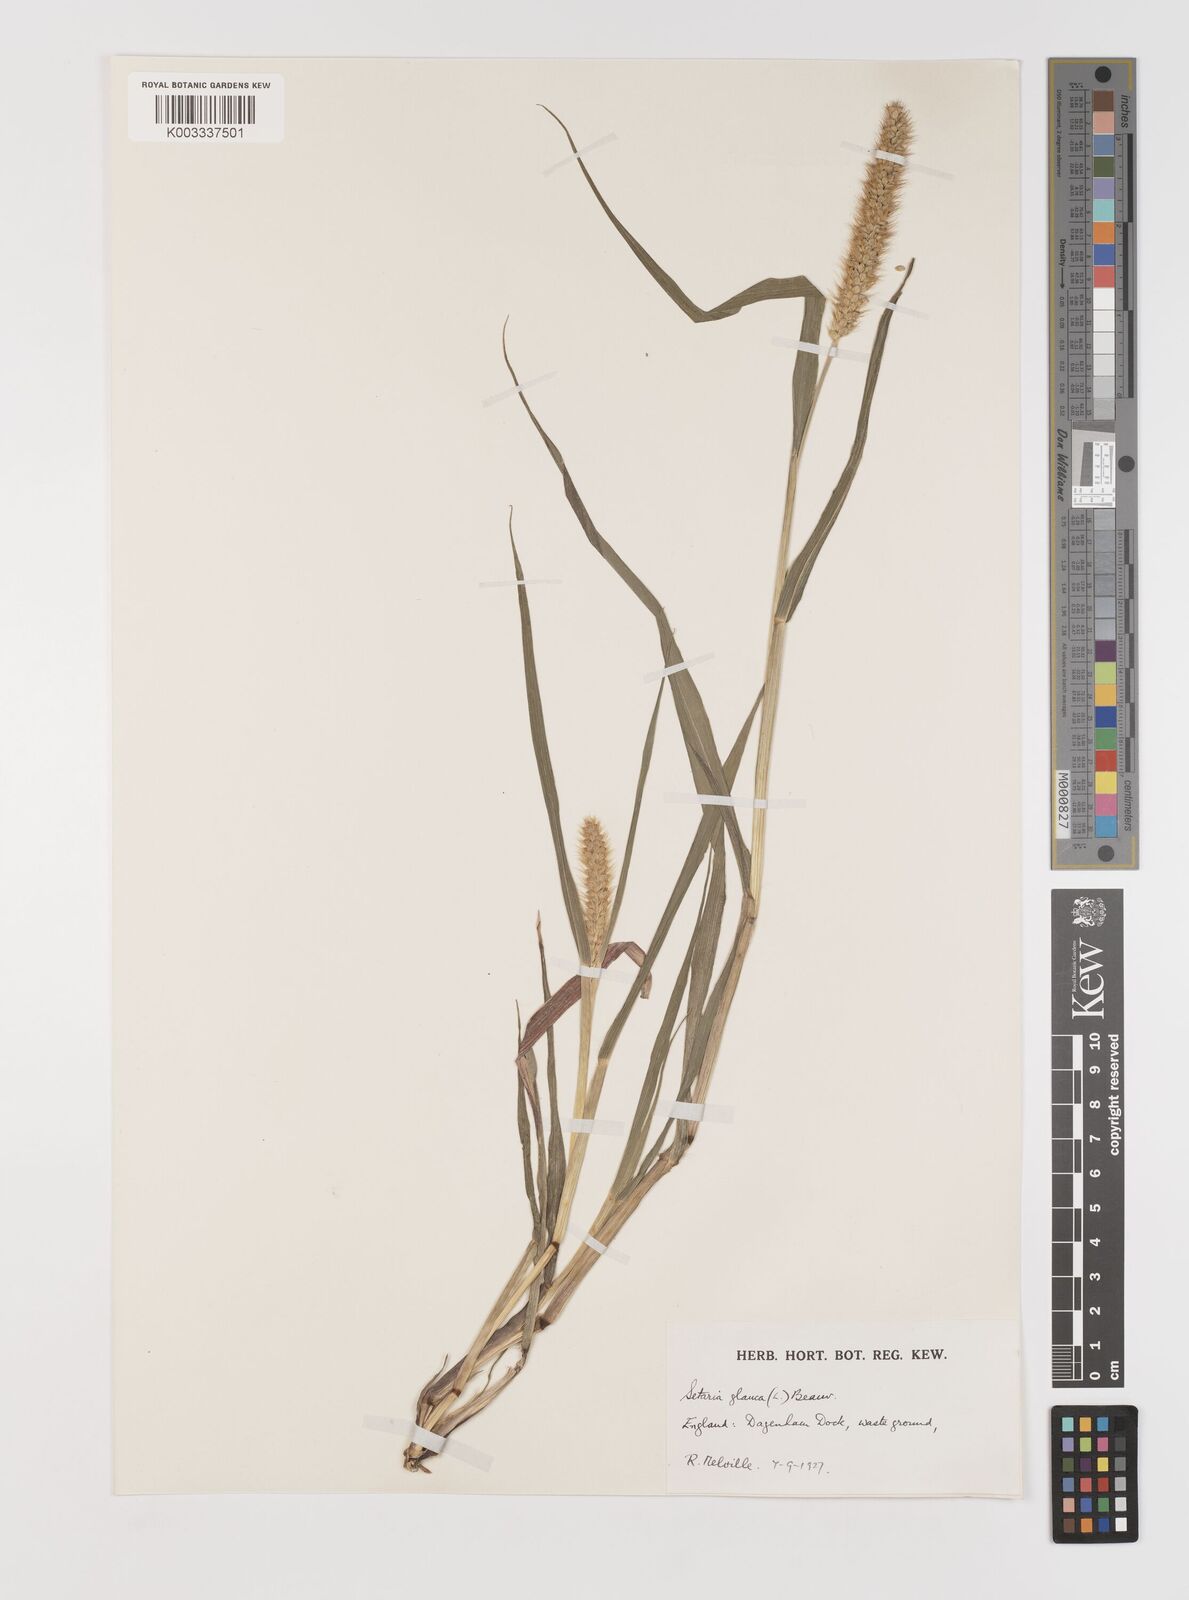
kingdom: Plantae
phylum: Tracheophyta
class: Liliopsida
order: Poales
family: Poaceae
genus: Setaria
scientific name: Setaria pumila
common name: Yellow bristle-grass
